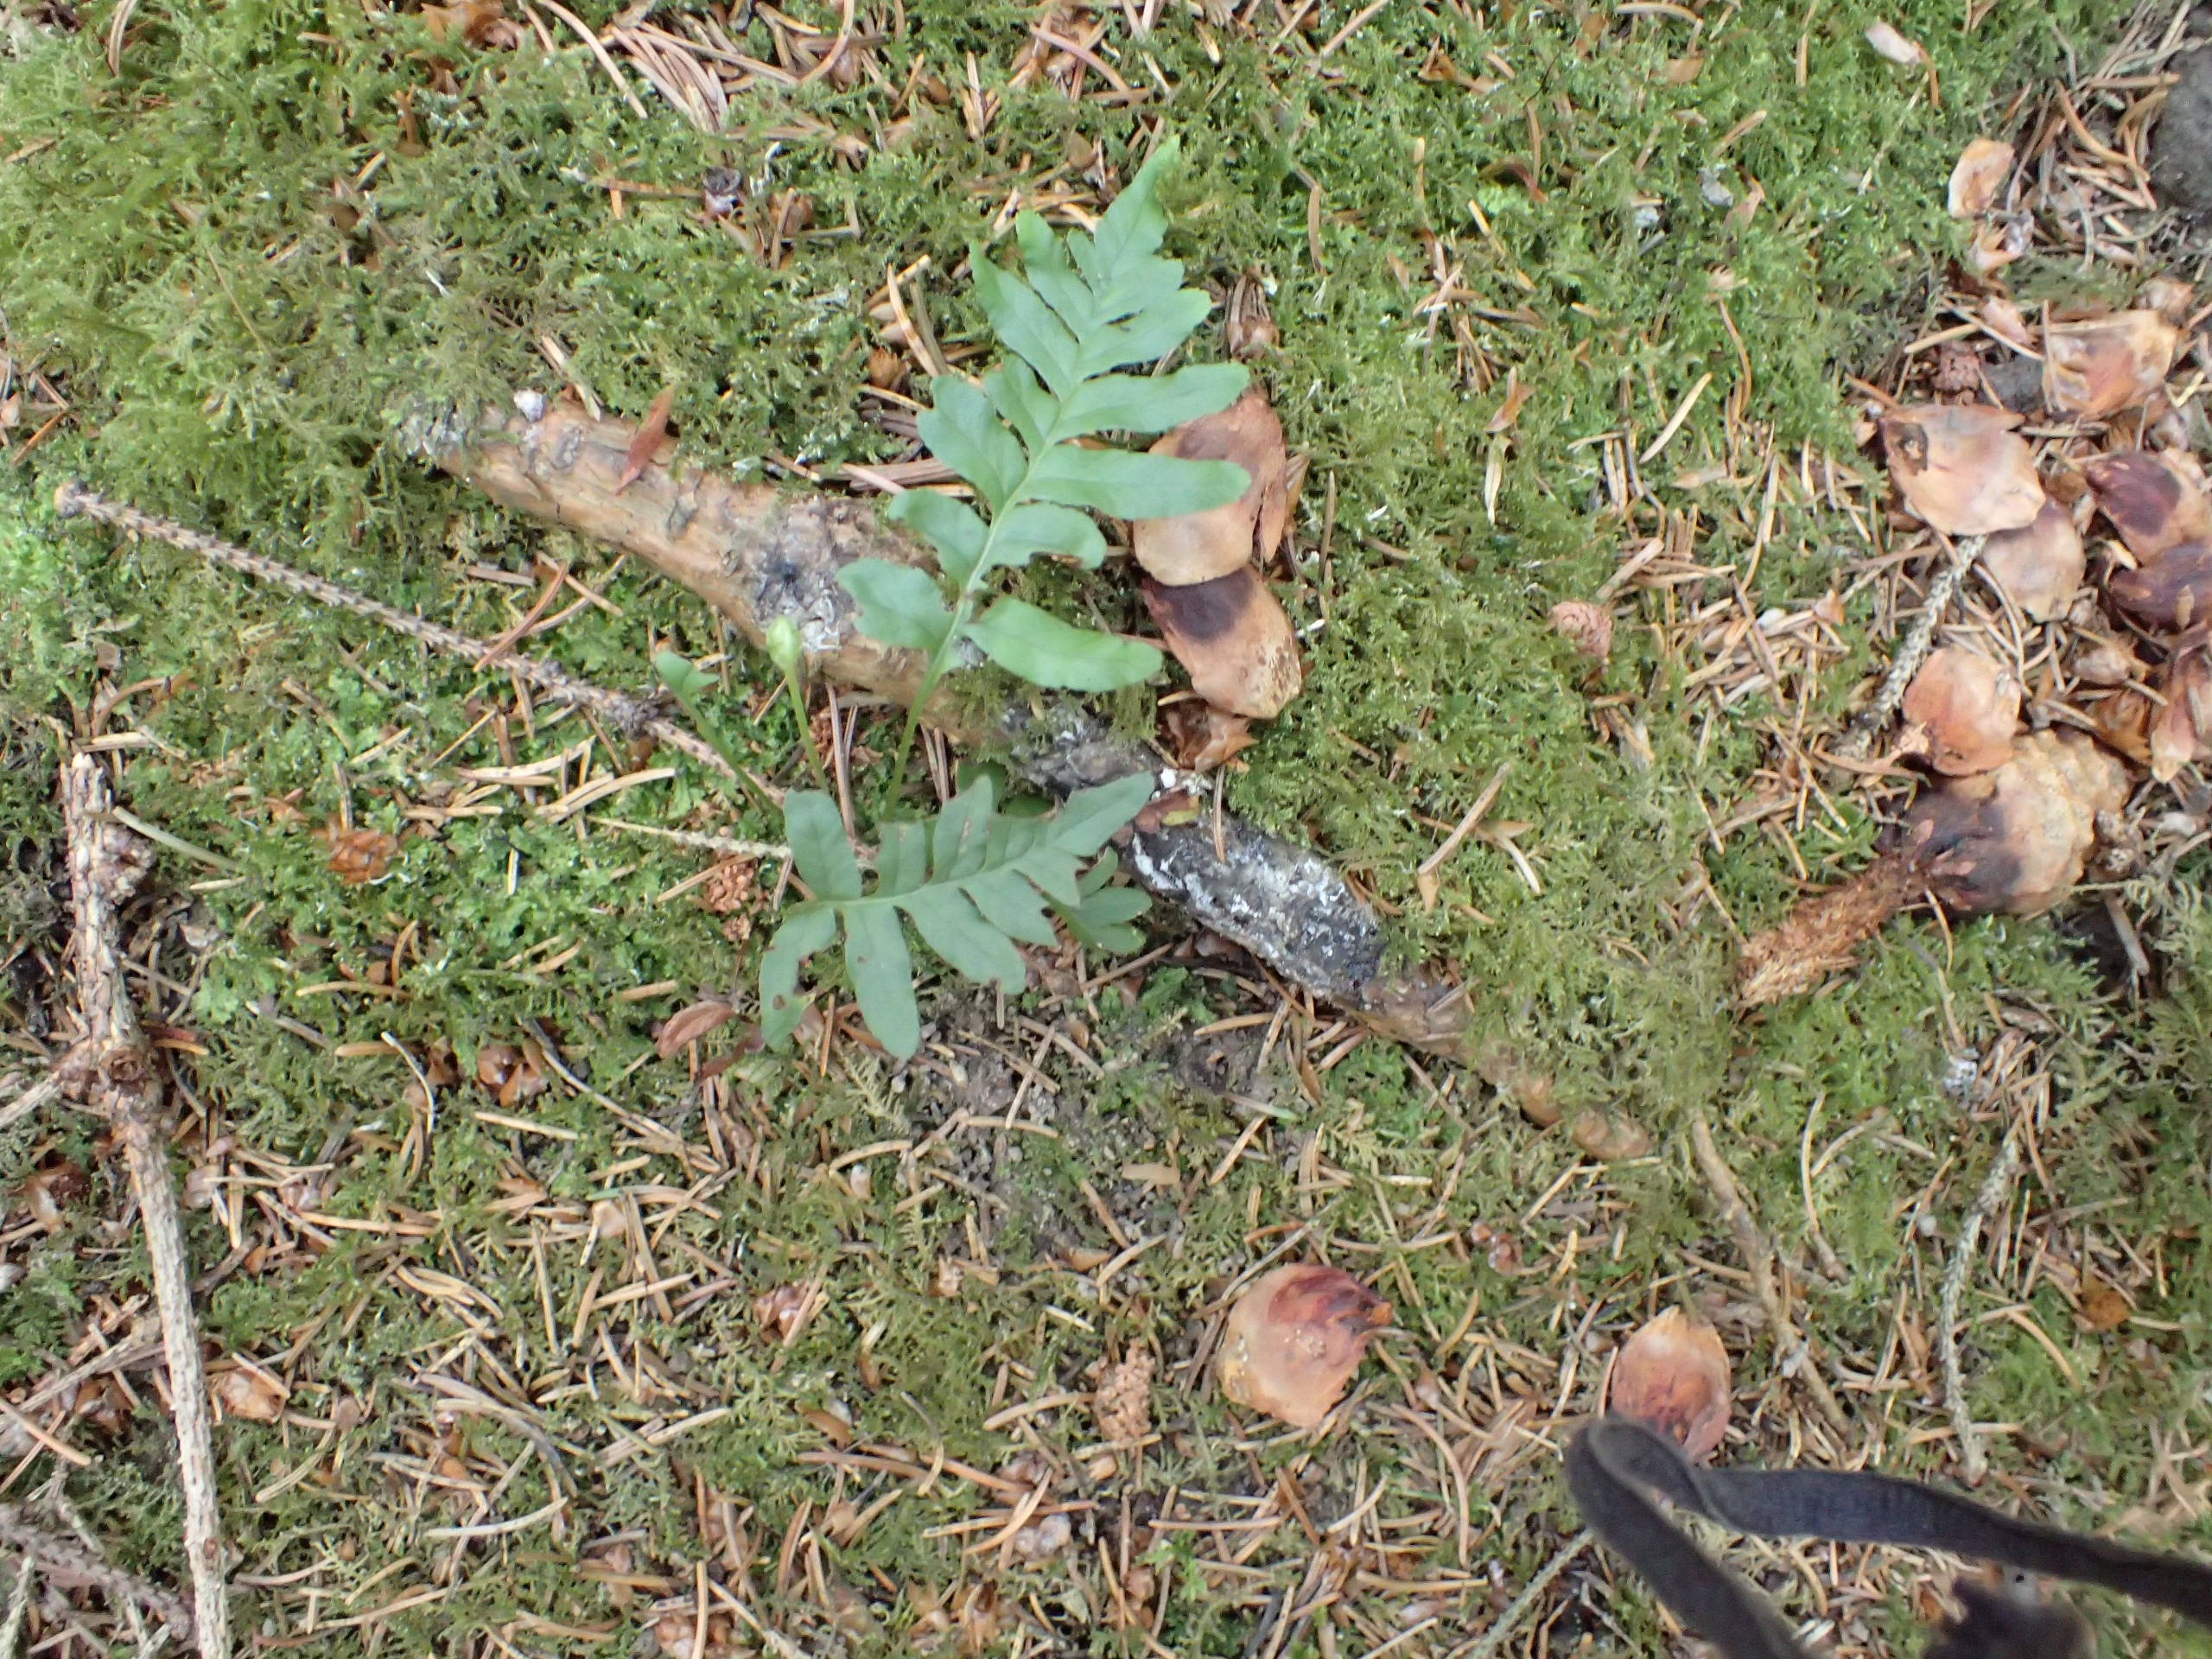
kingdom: Plantae
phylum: Tracheophyta
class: Polypodiopsida
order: Polypodiales
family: Polypodiaceae
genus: Polypodium
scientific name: Polypodium vulgare
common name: Almindelig engelsød
